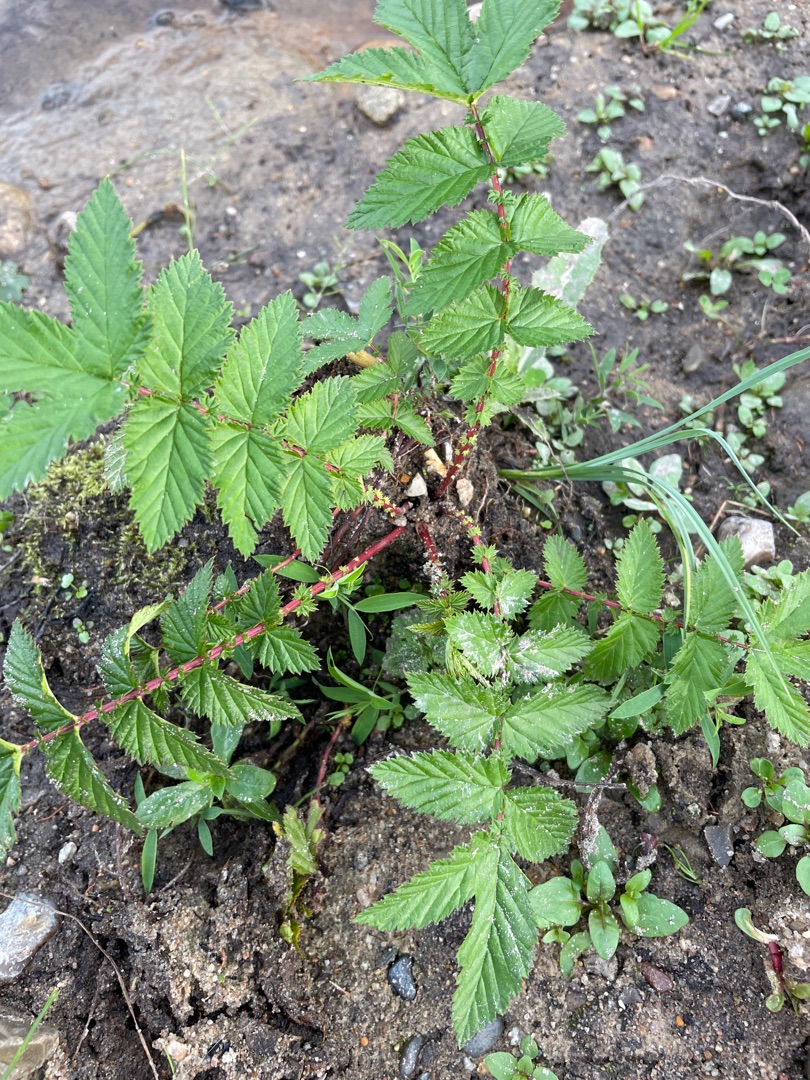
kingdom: Plantae
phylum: Tracheophyta
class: Magnoliopsida
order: Rosales
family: Rosaceae
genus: Filipendula
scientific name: Filipendula ulmaria
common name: Almindelig mjødurt
